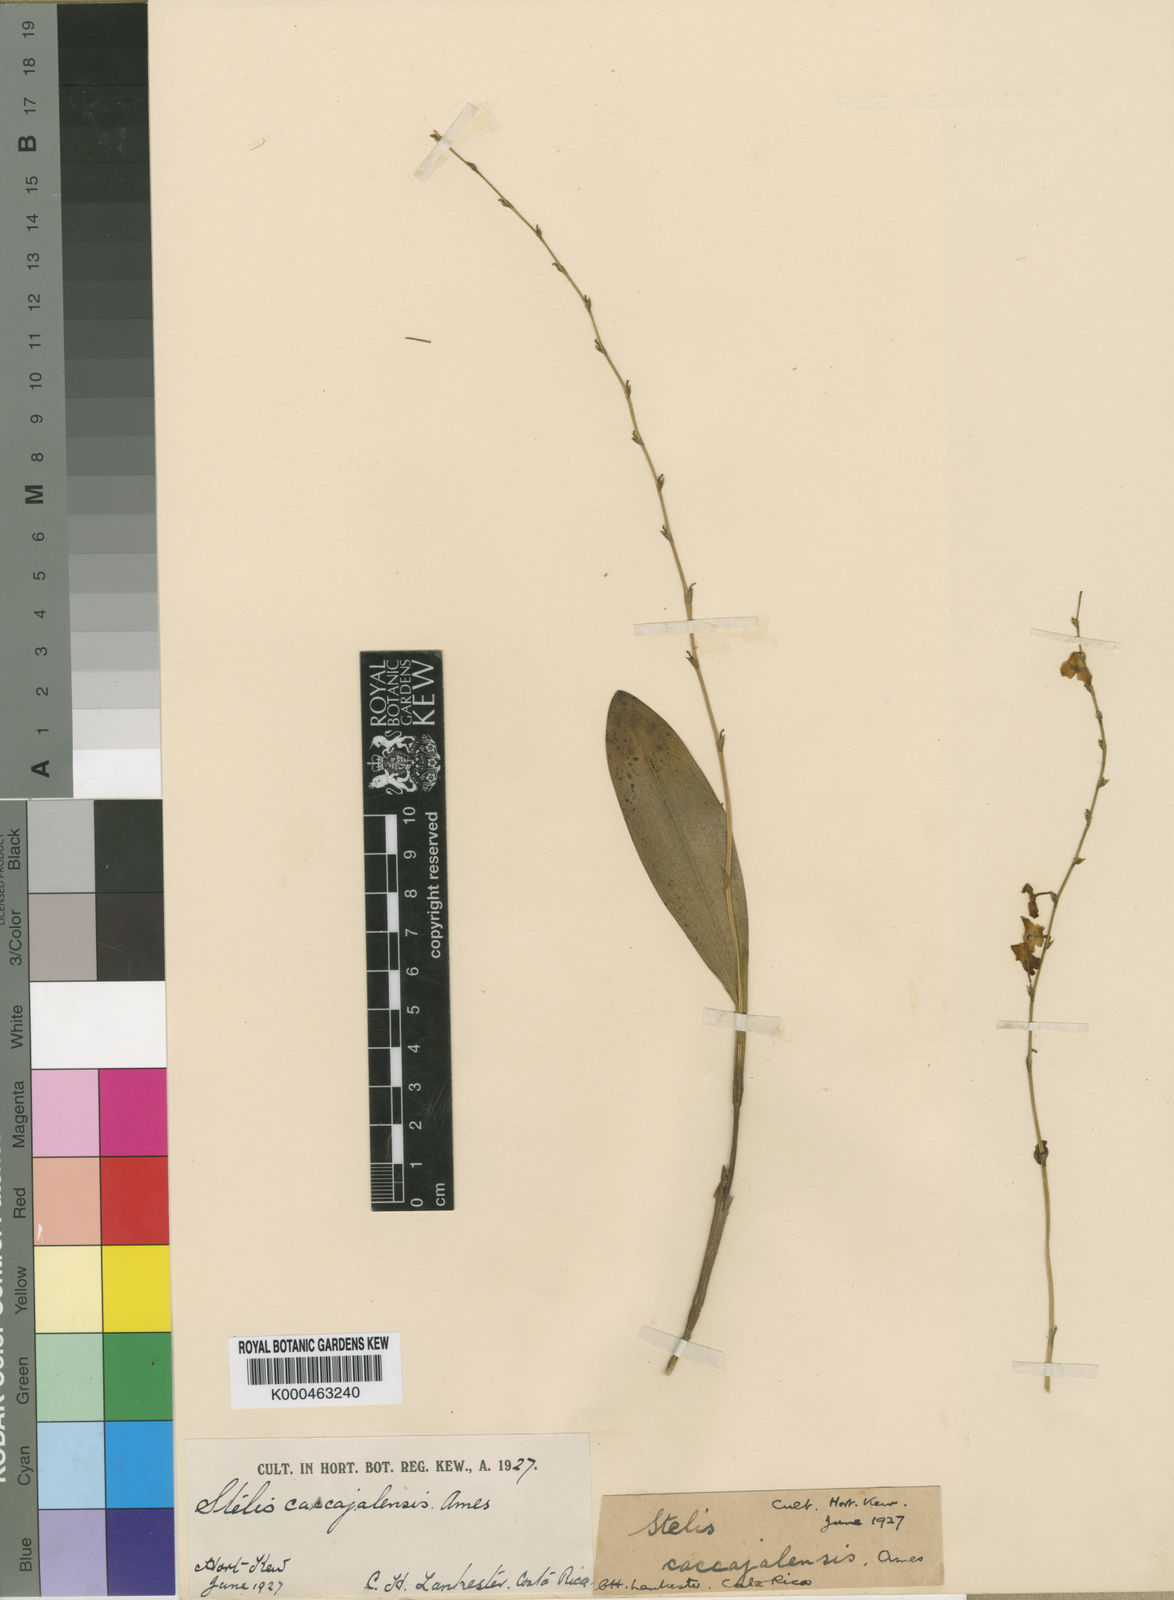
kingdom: Plantae
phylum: Tracheophyta
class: Liliopsida
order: Asparagales
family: Orchidaceae
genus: Stelis
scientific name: Stelis superbiens
